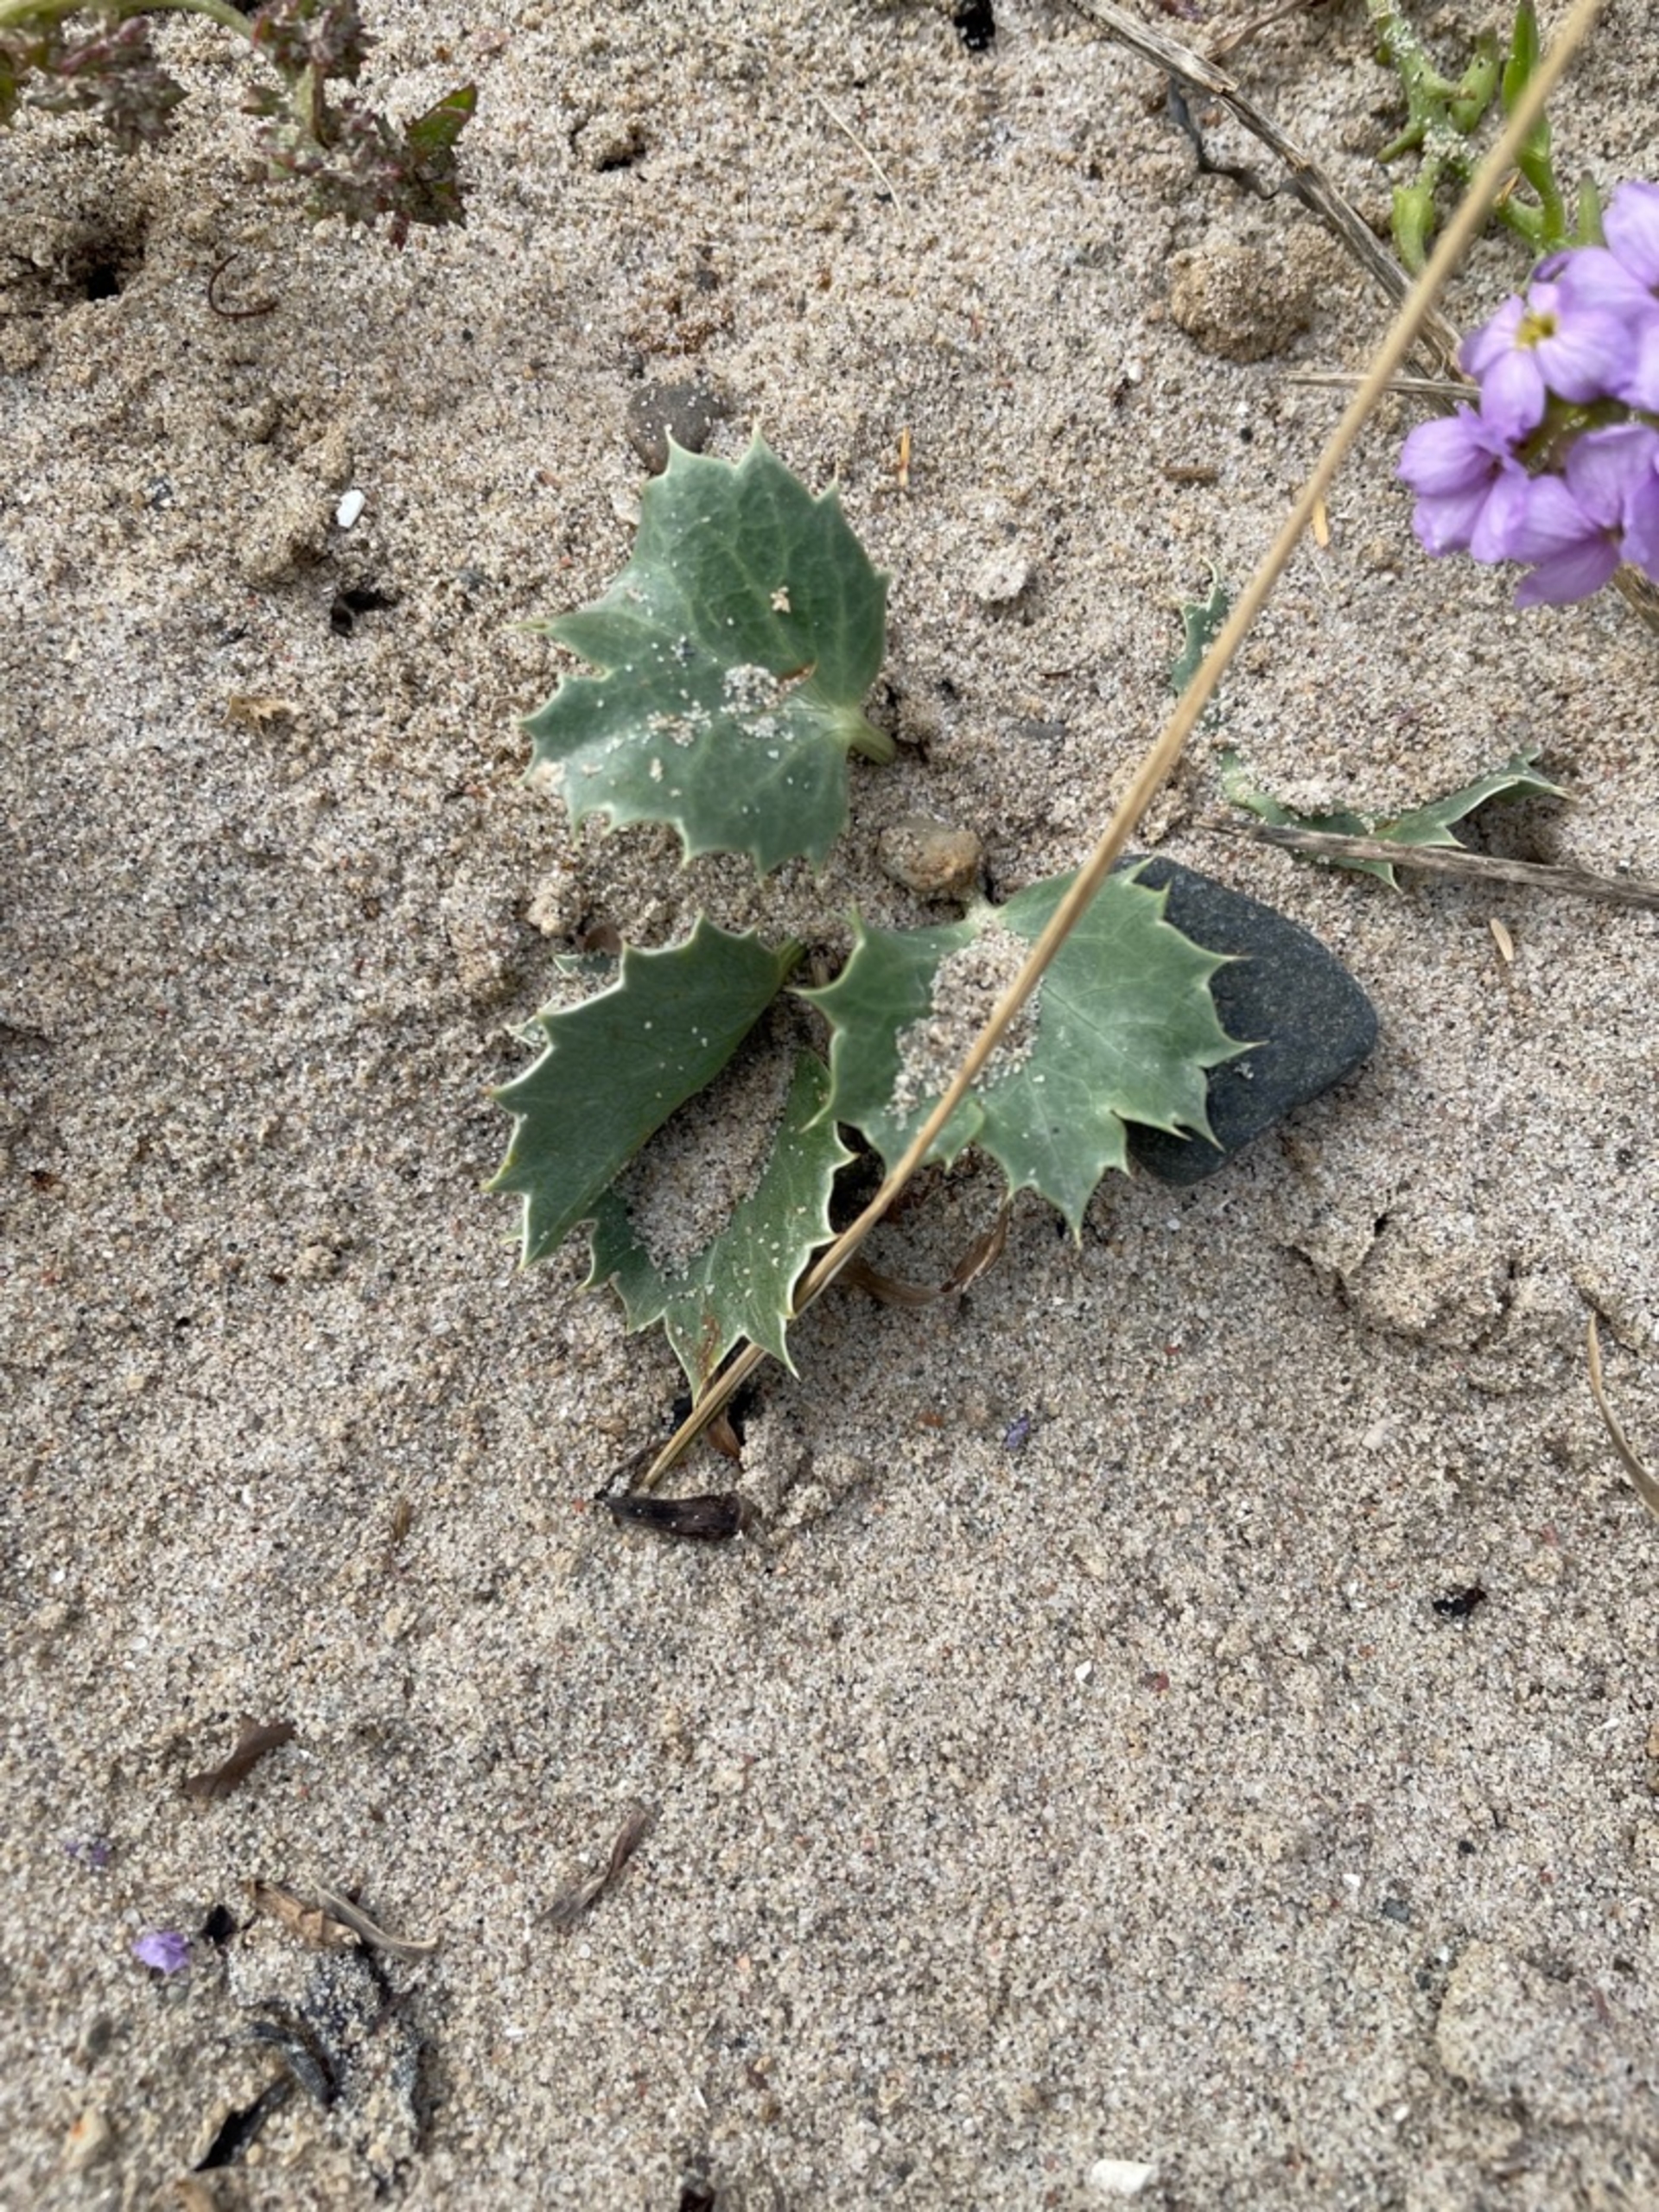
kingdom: Plantae
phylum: Tracheophyta
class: Magnoliopsida
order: Apiales
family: Apiaceae
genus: Eryngium
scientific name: Eryngium maritimum
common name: Strand-mandstro
